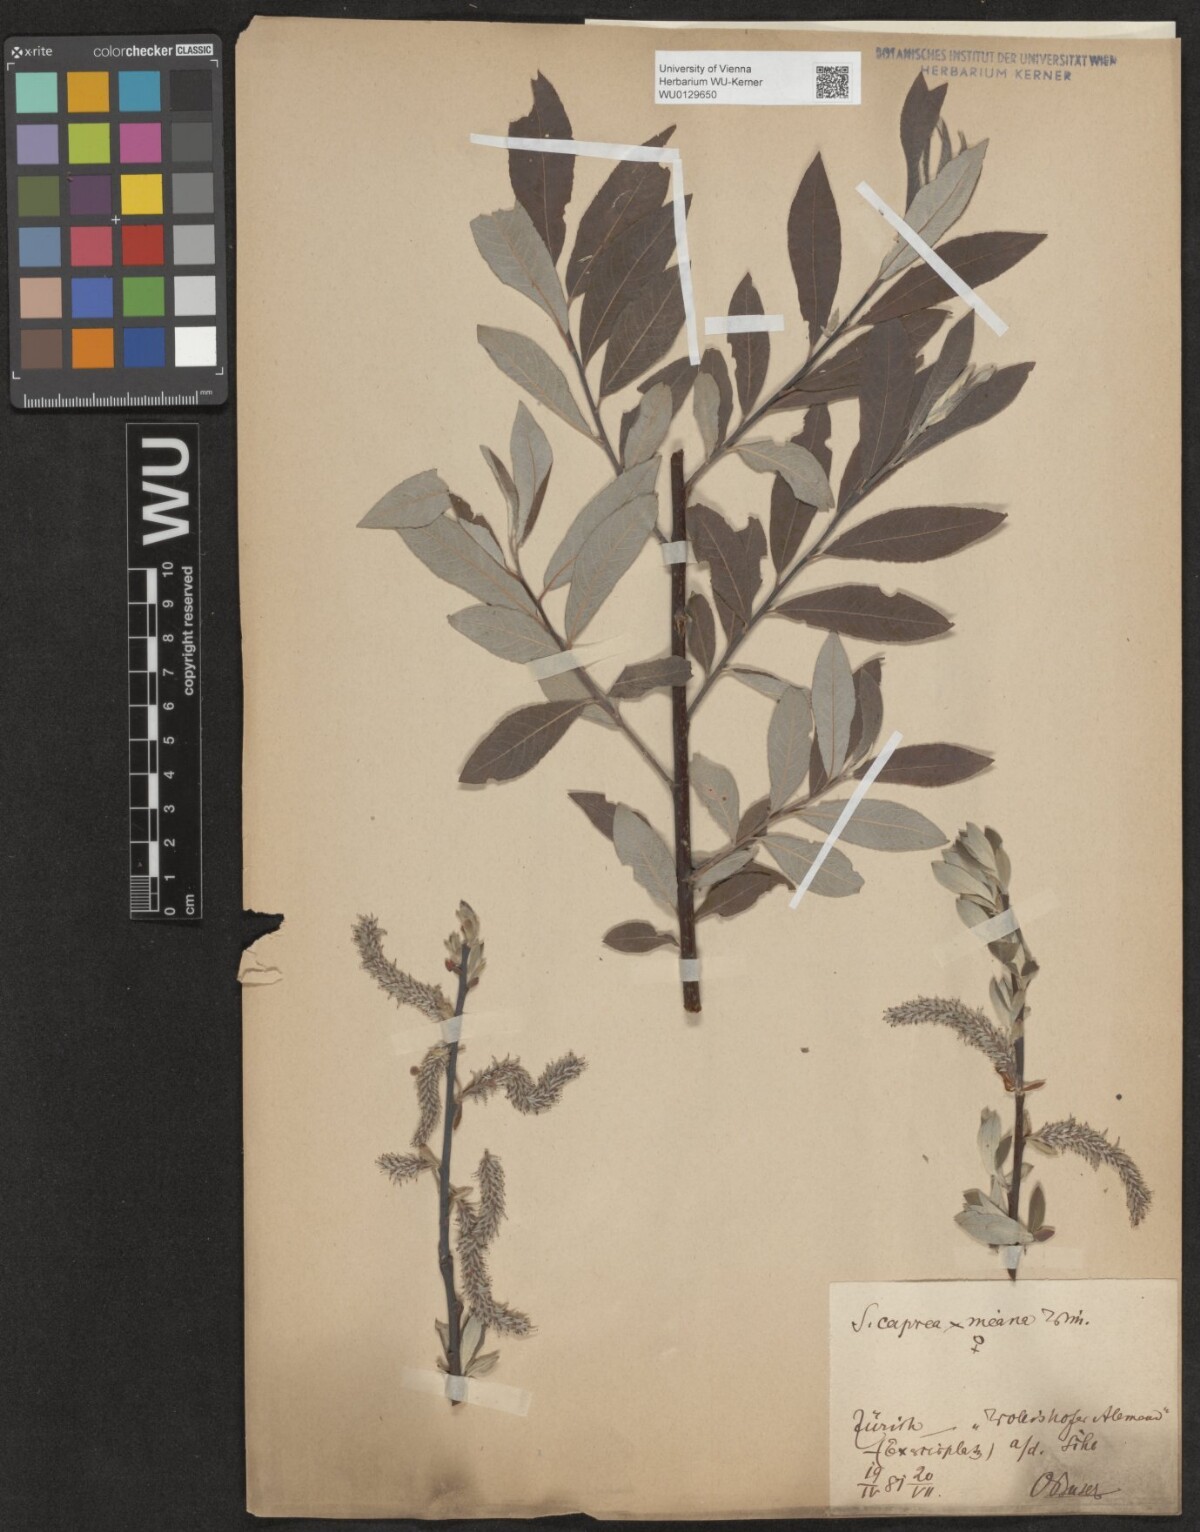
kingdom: Plantae
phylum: Tracheophyta
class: Magnoliopsida
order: Malpighiales
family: Salicaceae
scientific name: Salicaceae
